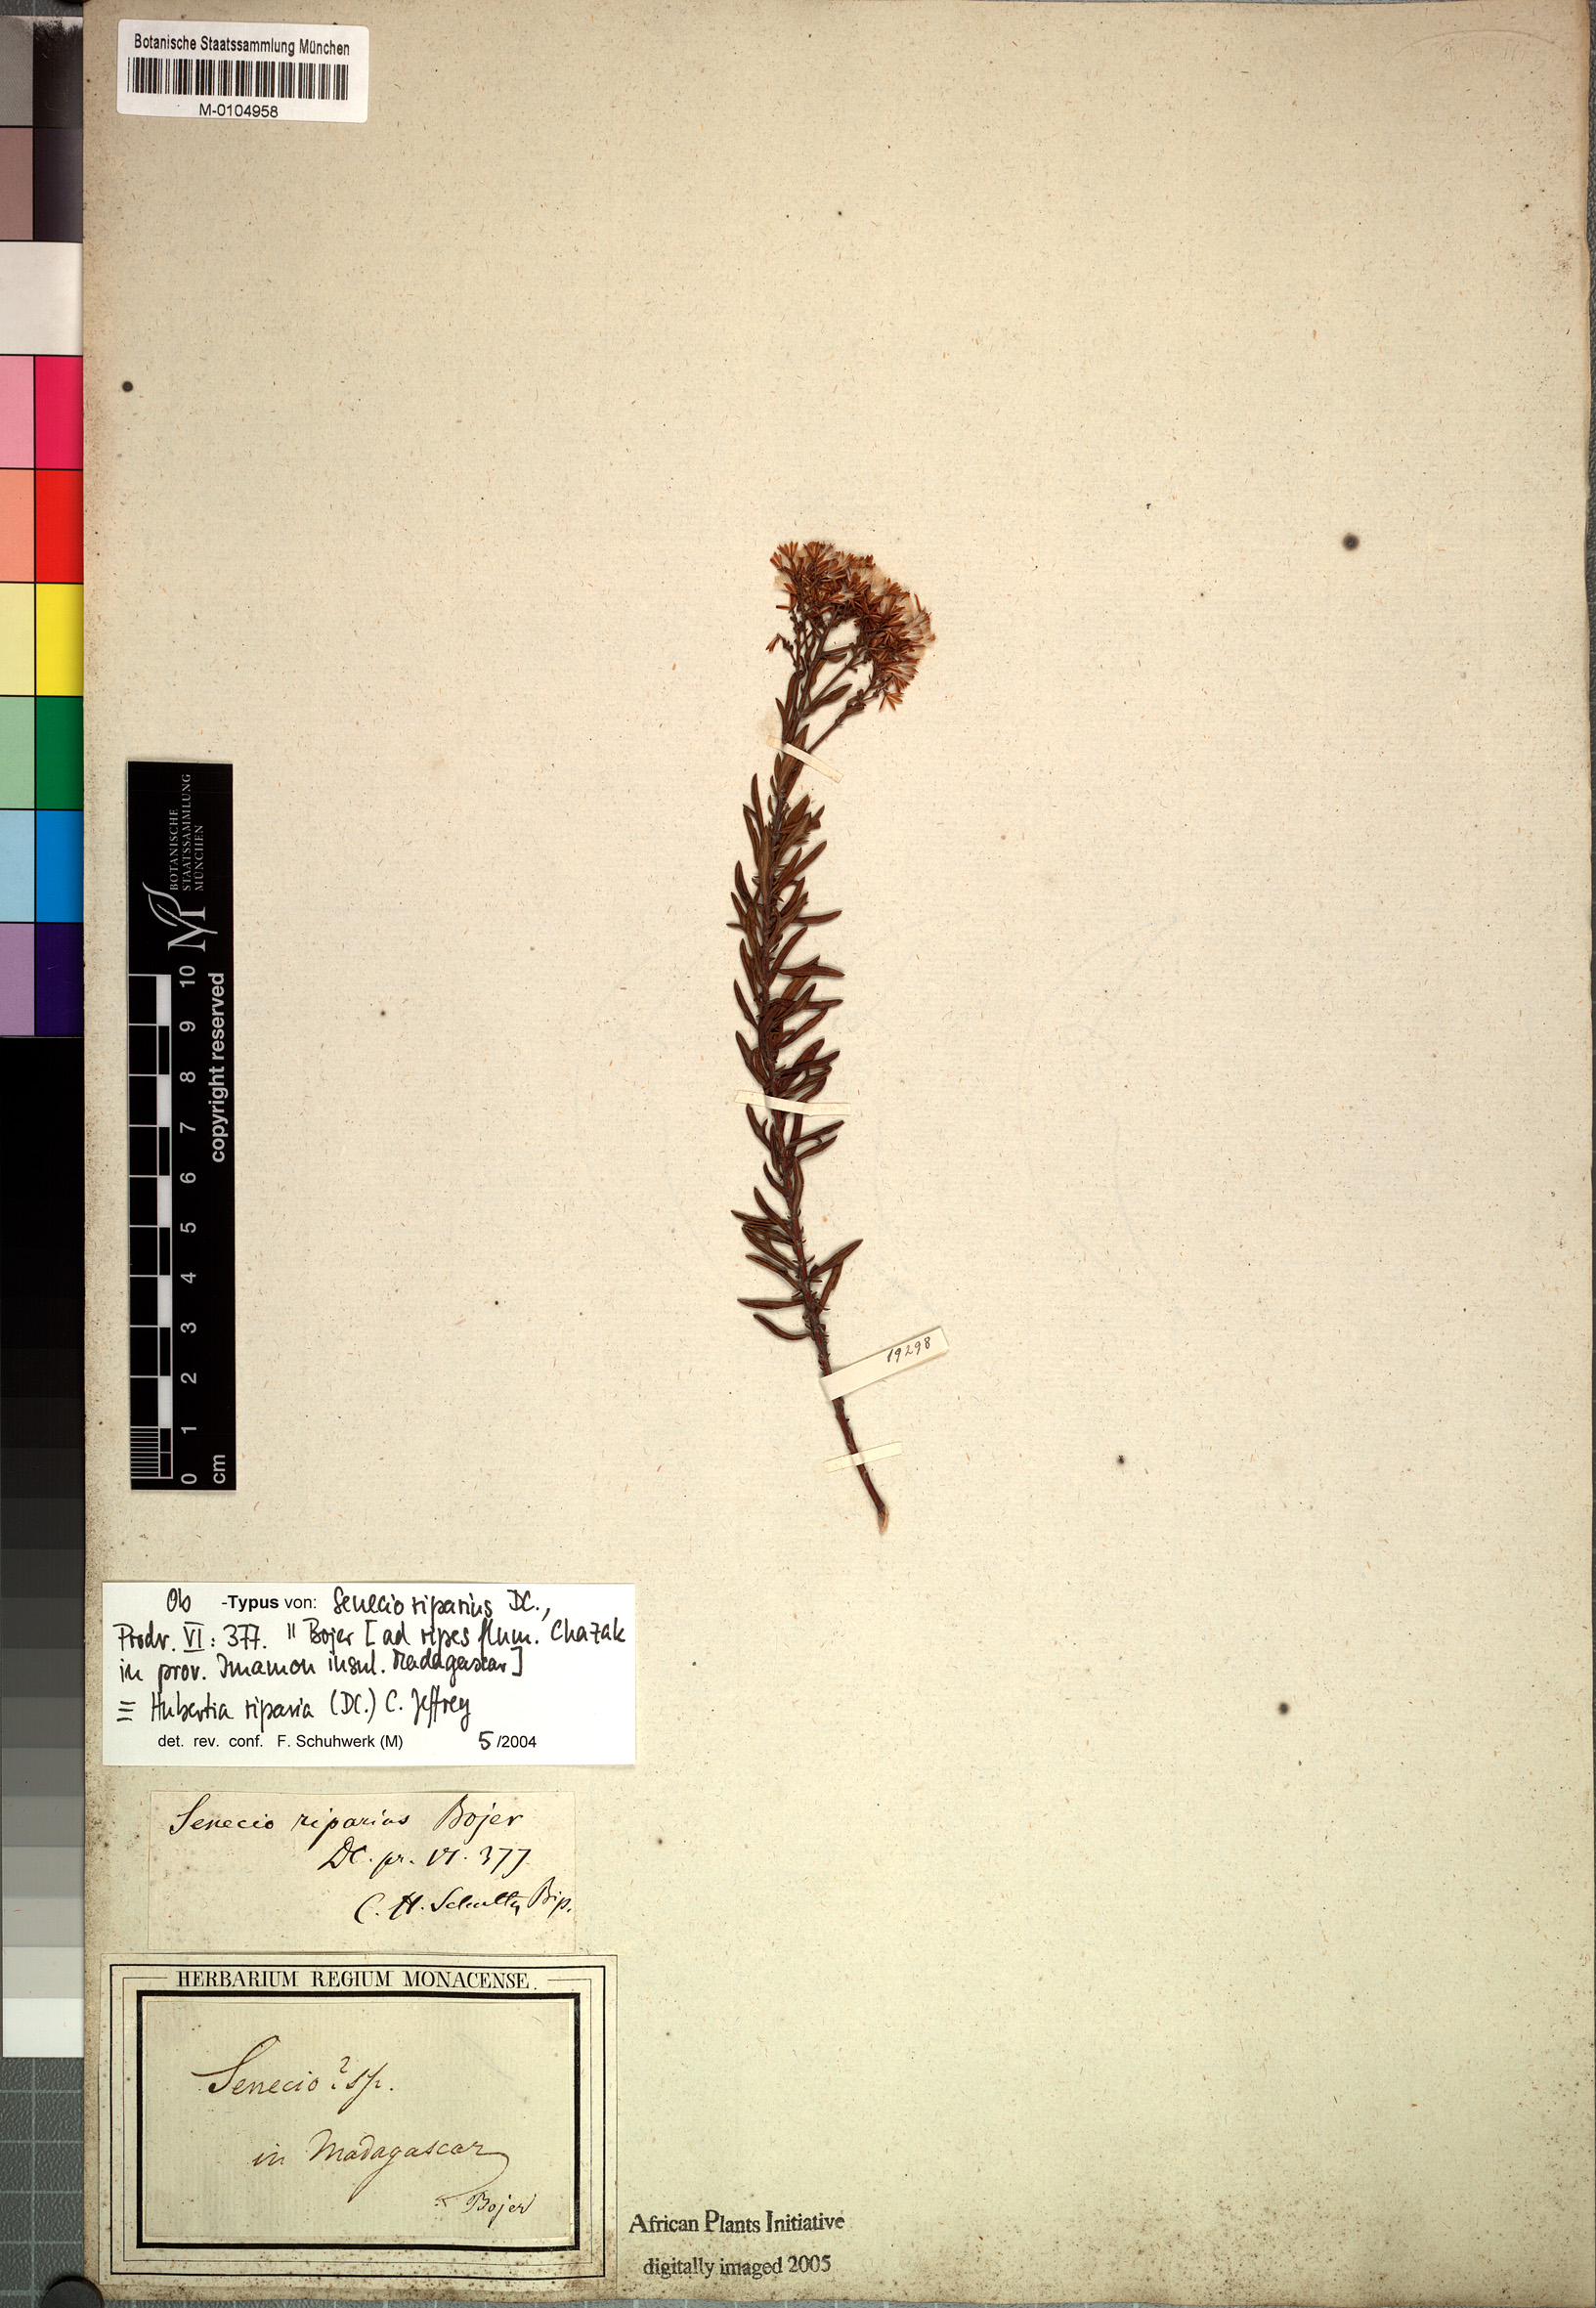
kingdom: Plantae
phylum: Tracheophyta
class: Magnoliopsida
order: Asterales
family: Asteraceae
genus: Hubertia
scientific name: Hubertia riparia
